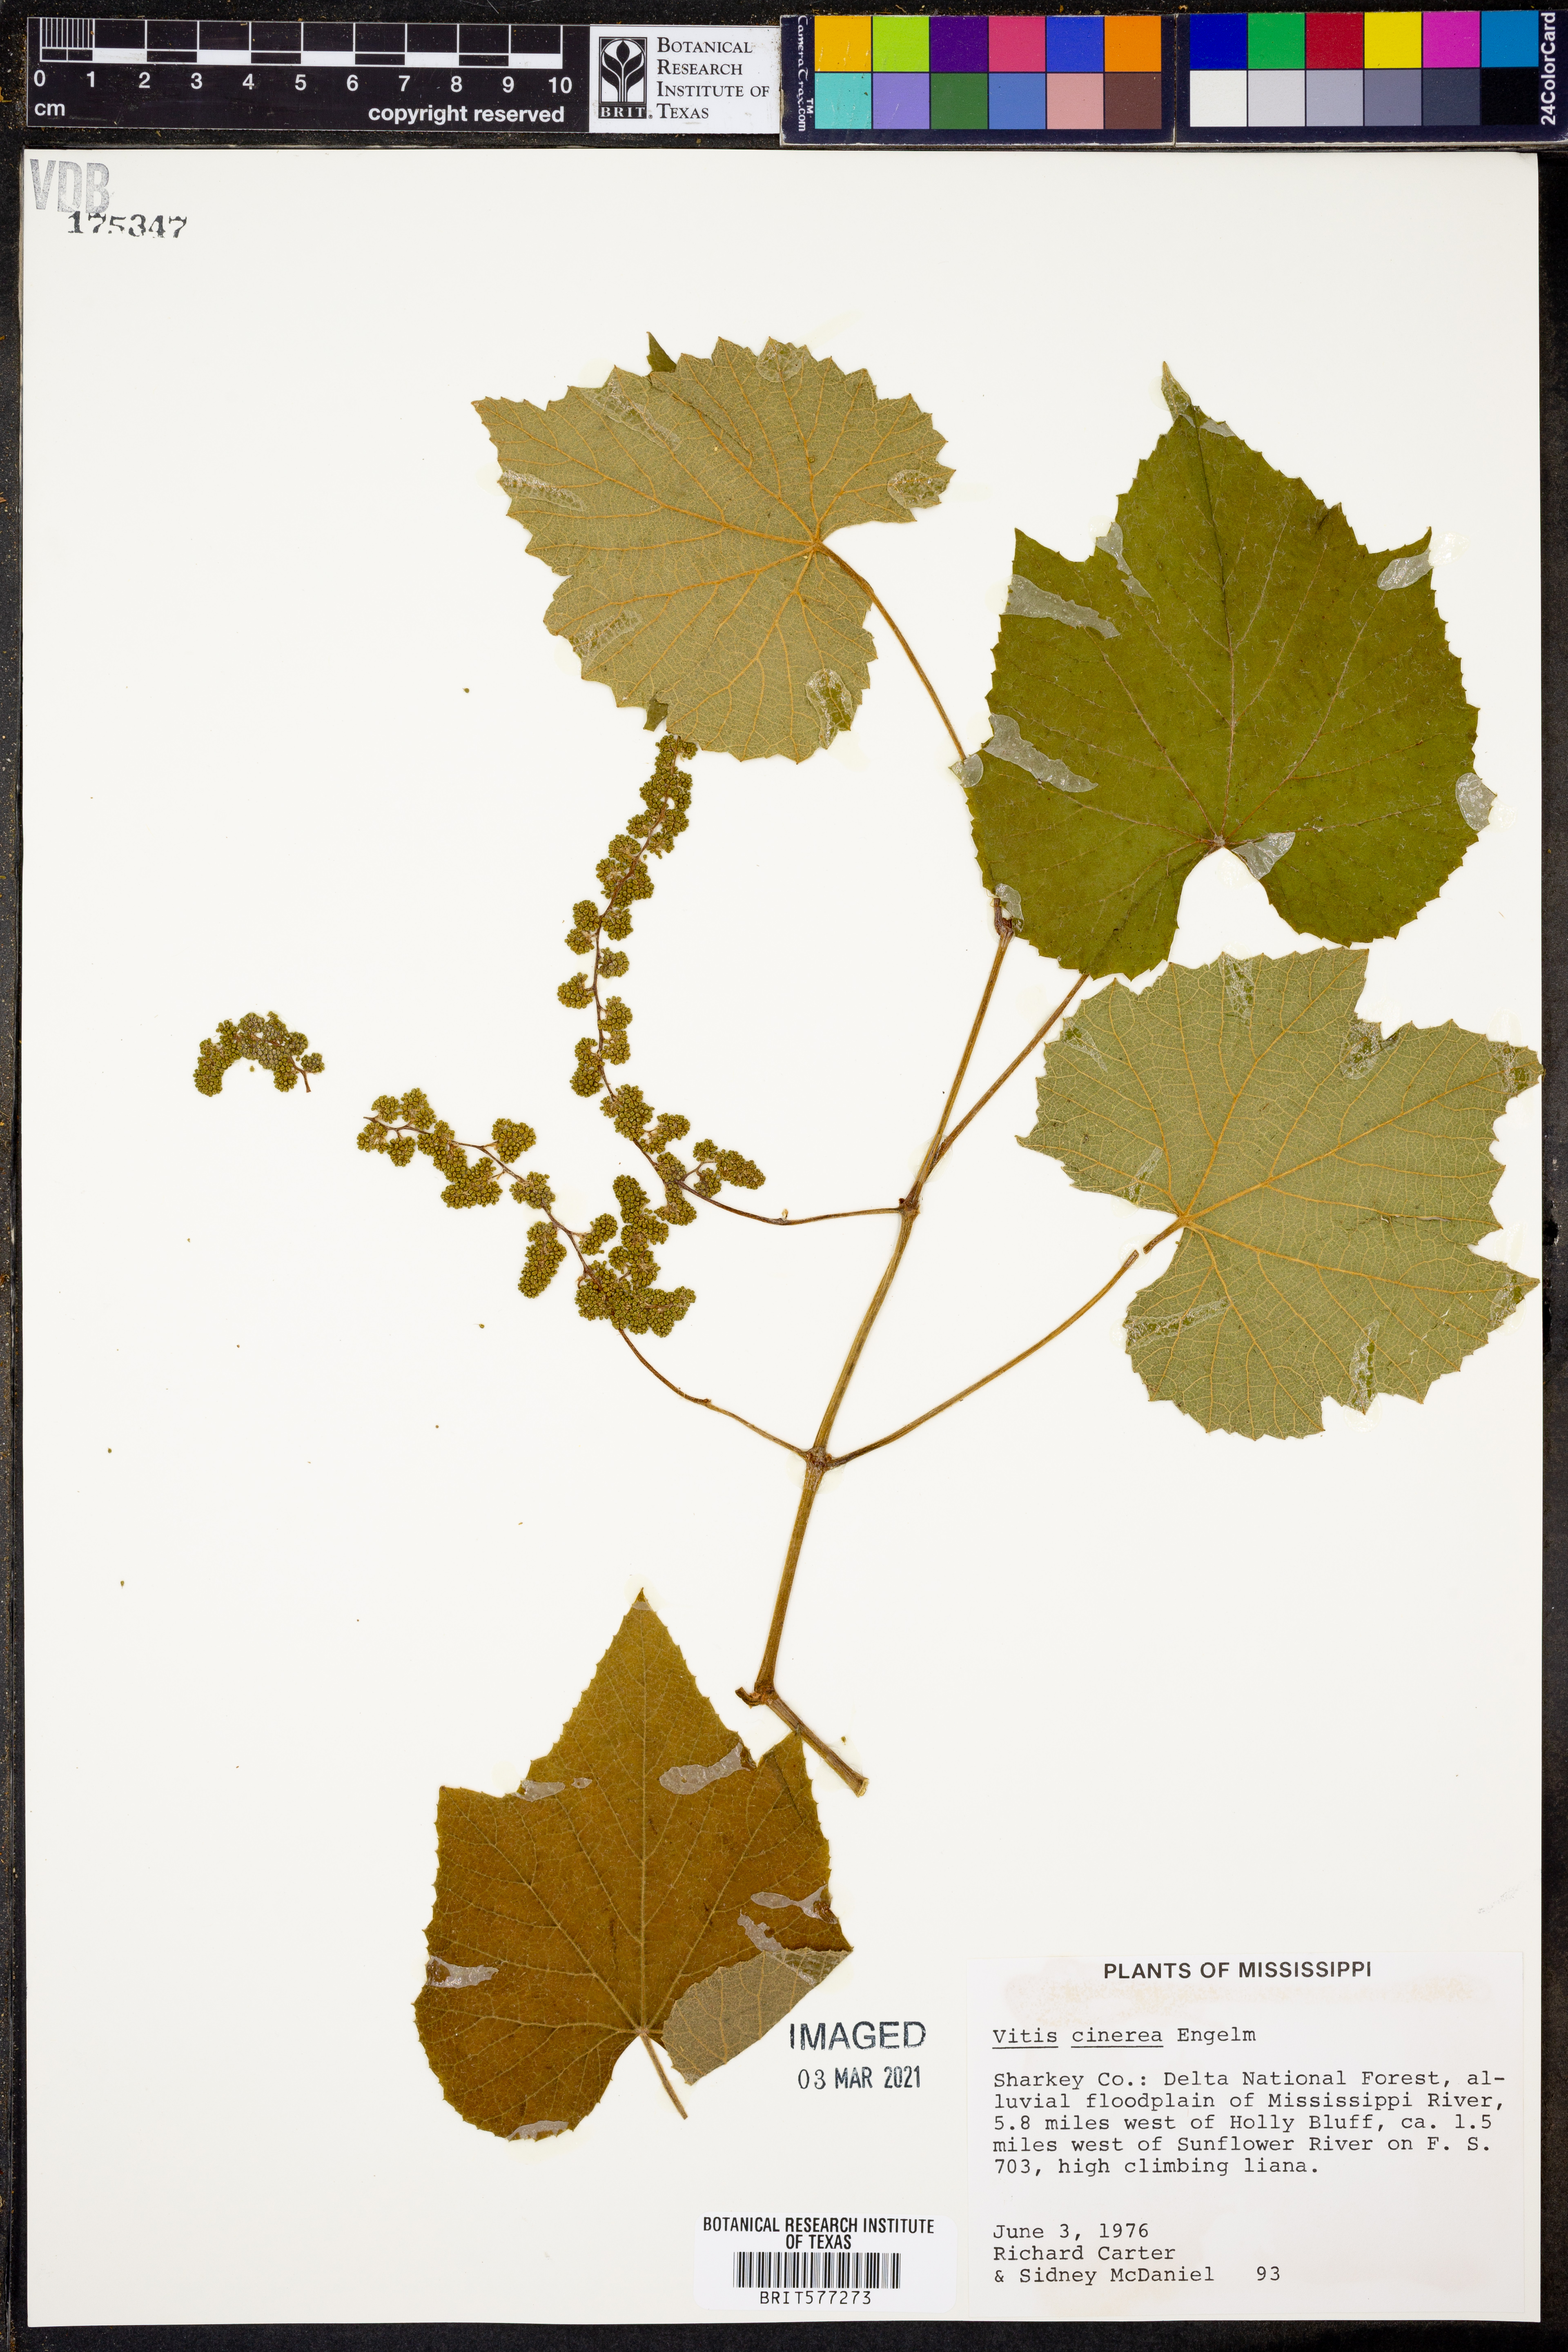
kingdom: Plantae
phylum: Tracheophyta
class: Magnoliopsida
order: Vitales
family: Vitaceae
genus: Vitis
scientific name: Vitis cinerea
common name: Ashy grape
